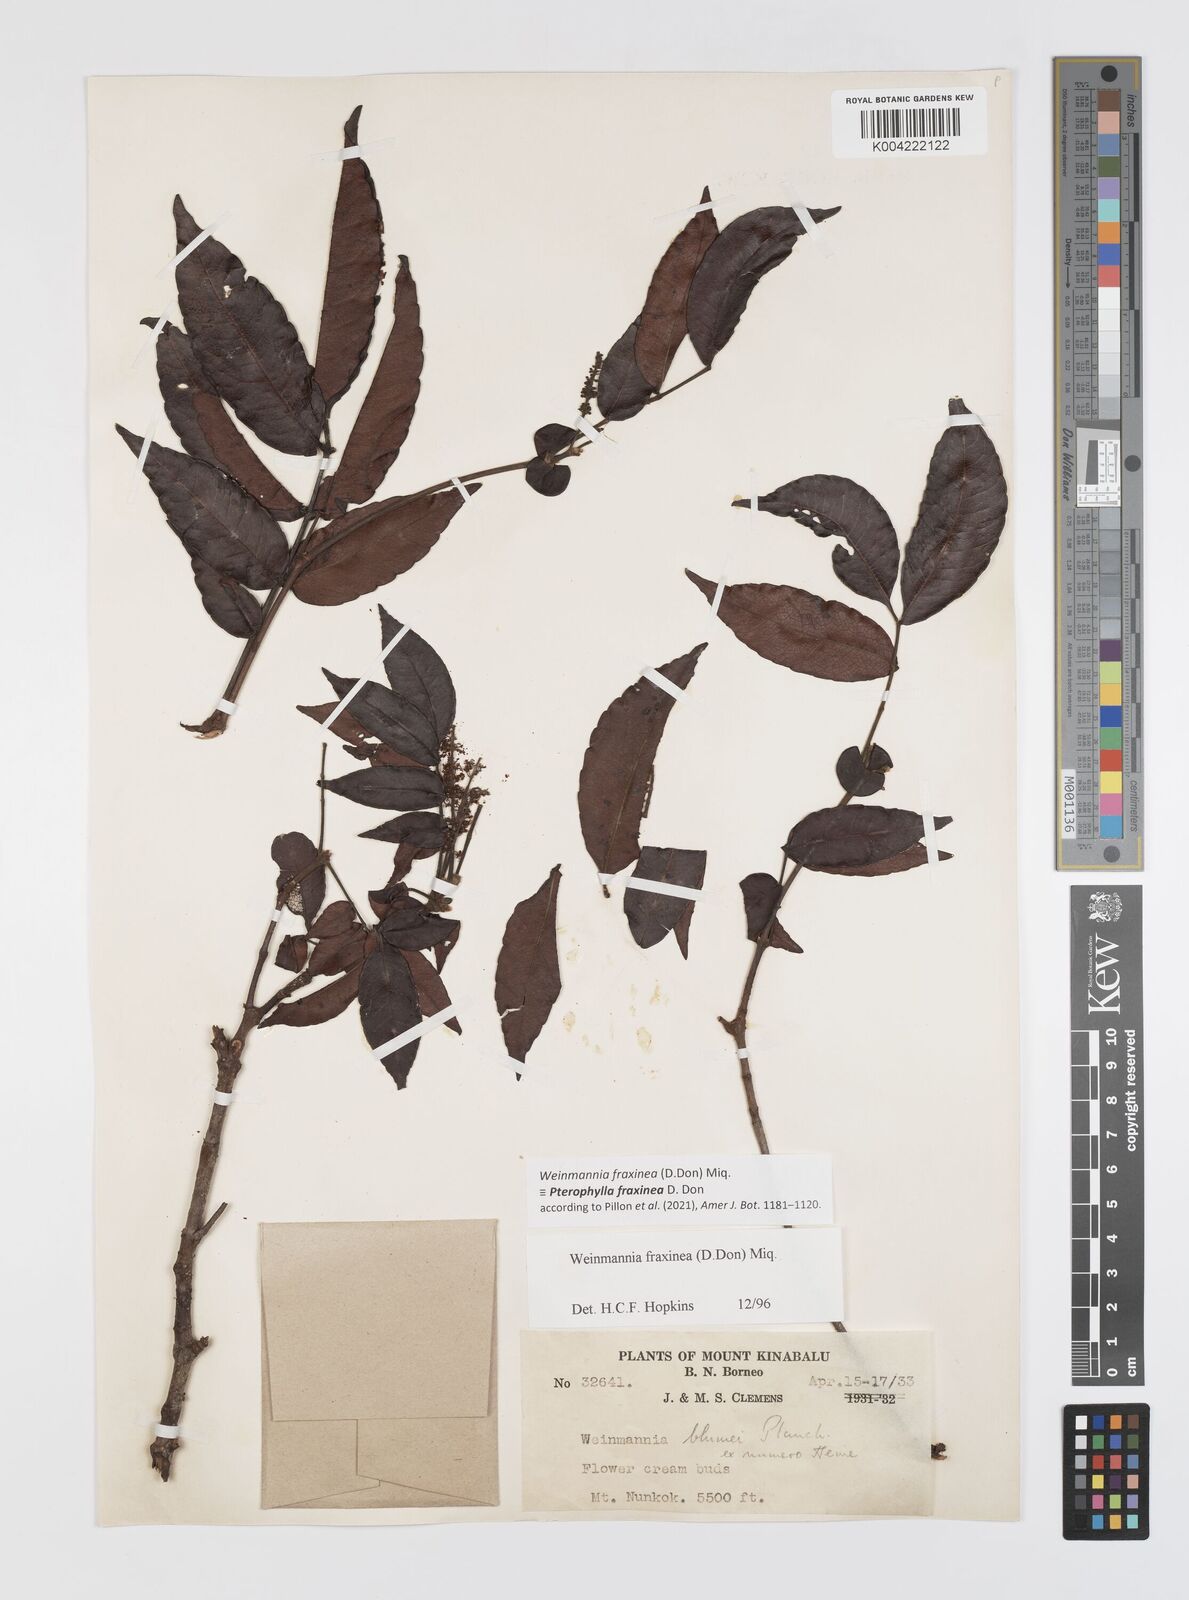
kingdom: Plantae
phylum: Tracheophyta
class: Magnoliopsida
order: Oxalidales
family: Cunoniaceae
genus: Pterophylla
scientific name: Pterophylla fraxinea
